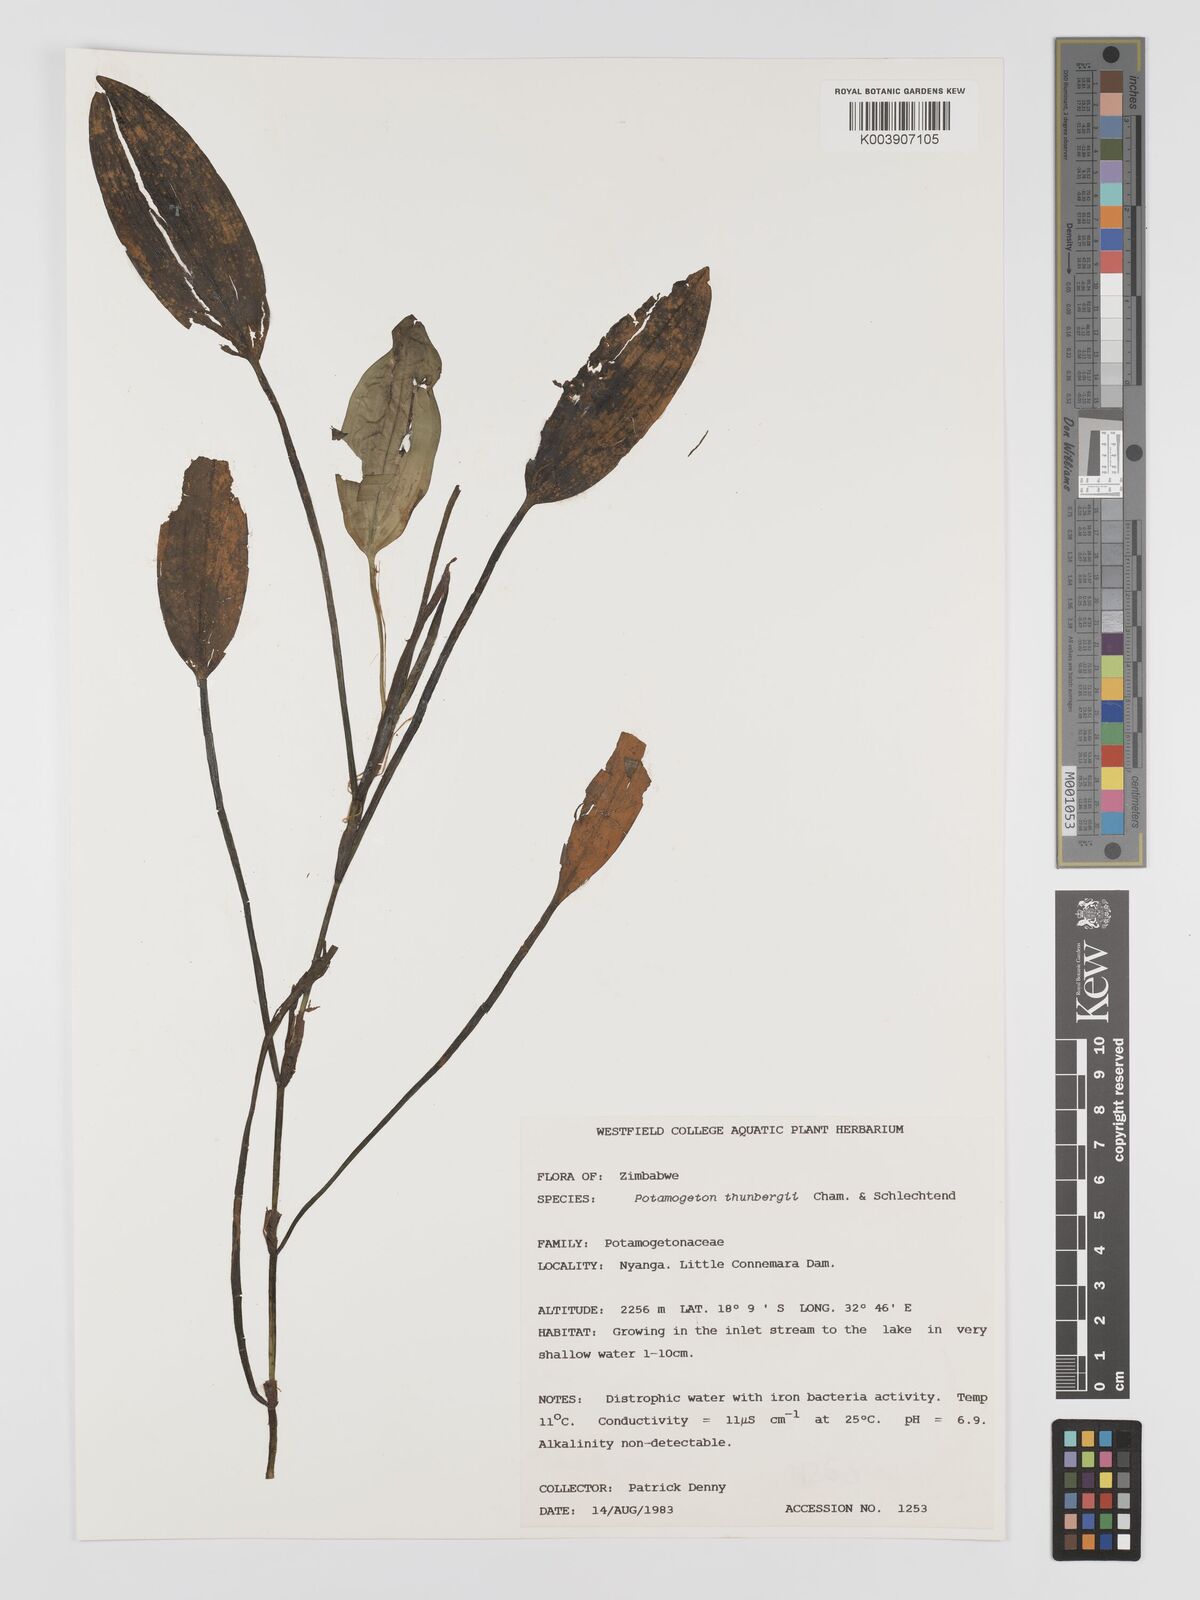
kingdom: Plantae
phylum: Tracheophyta
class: Liliopsida
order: Alismatales
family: Potamogetonaceae
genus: Potamogeton
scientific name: Potamogeton nodosus
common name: Loddon pondweed
